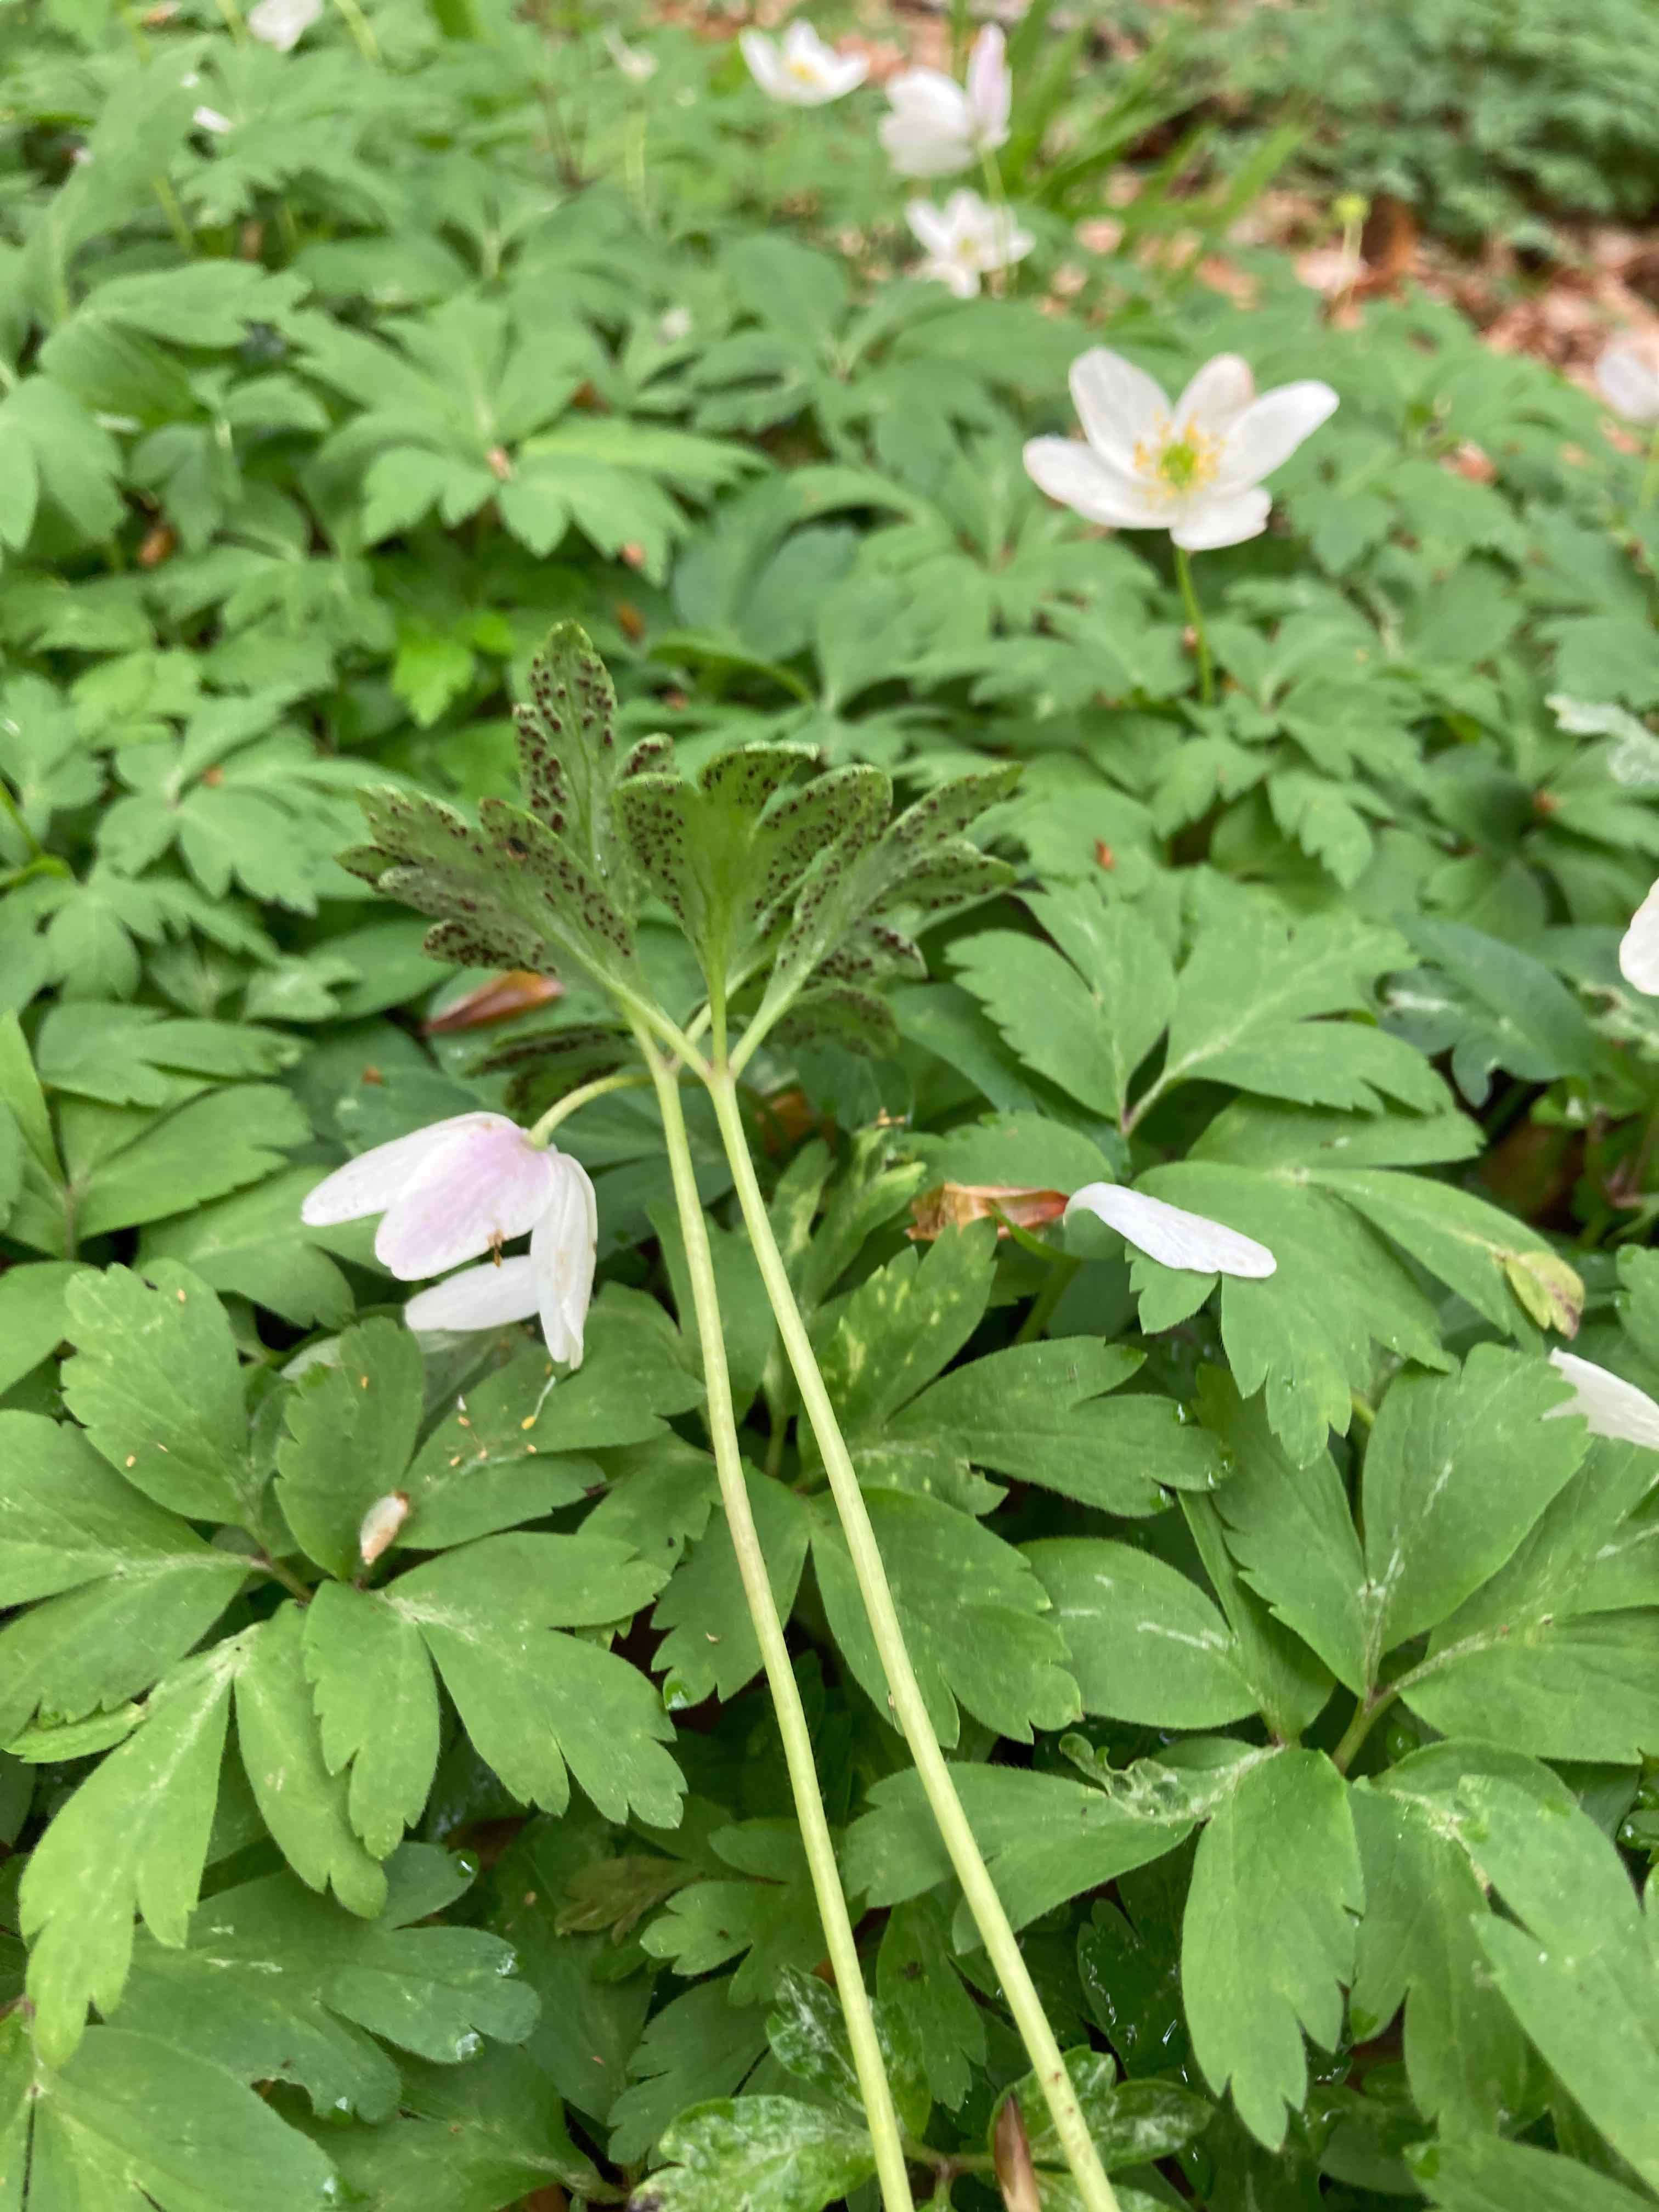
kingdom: Fungi
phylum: Basidiomycota
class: Pucciniomycetes
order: Pucciniales
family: Tranzscheliaceae
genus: Tranzschelia
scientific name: Tranzschelia anemones
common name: anemone-knæksporerust
